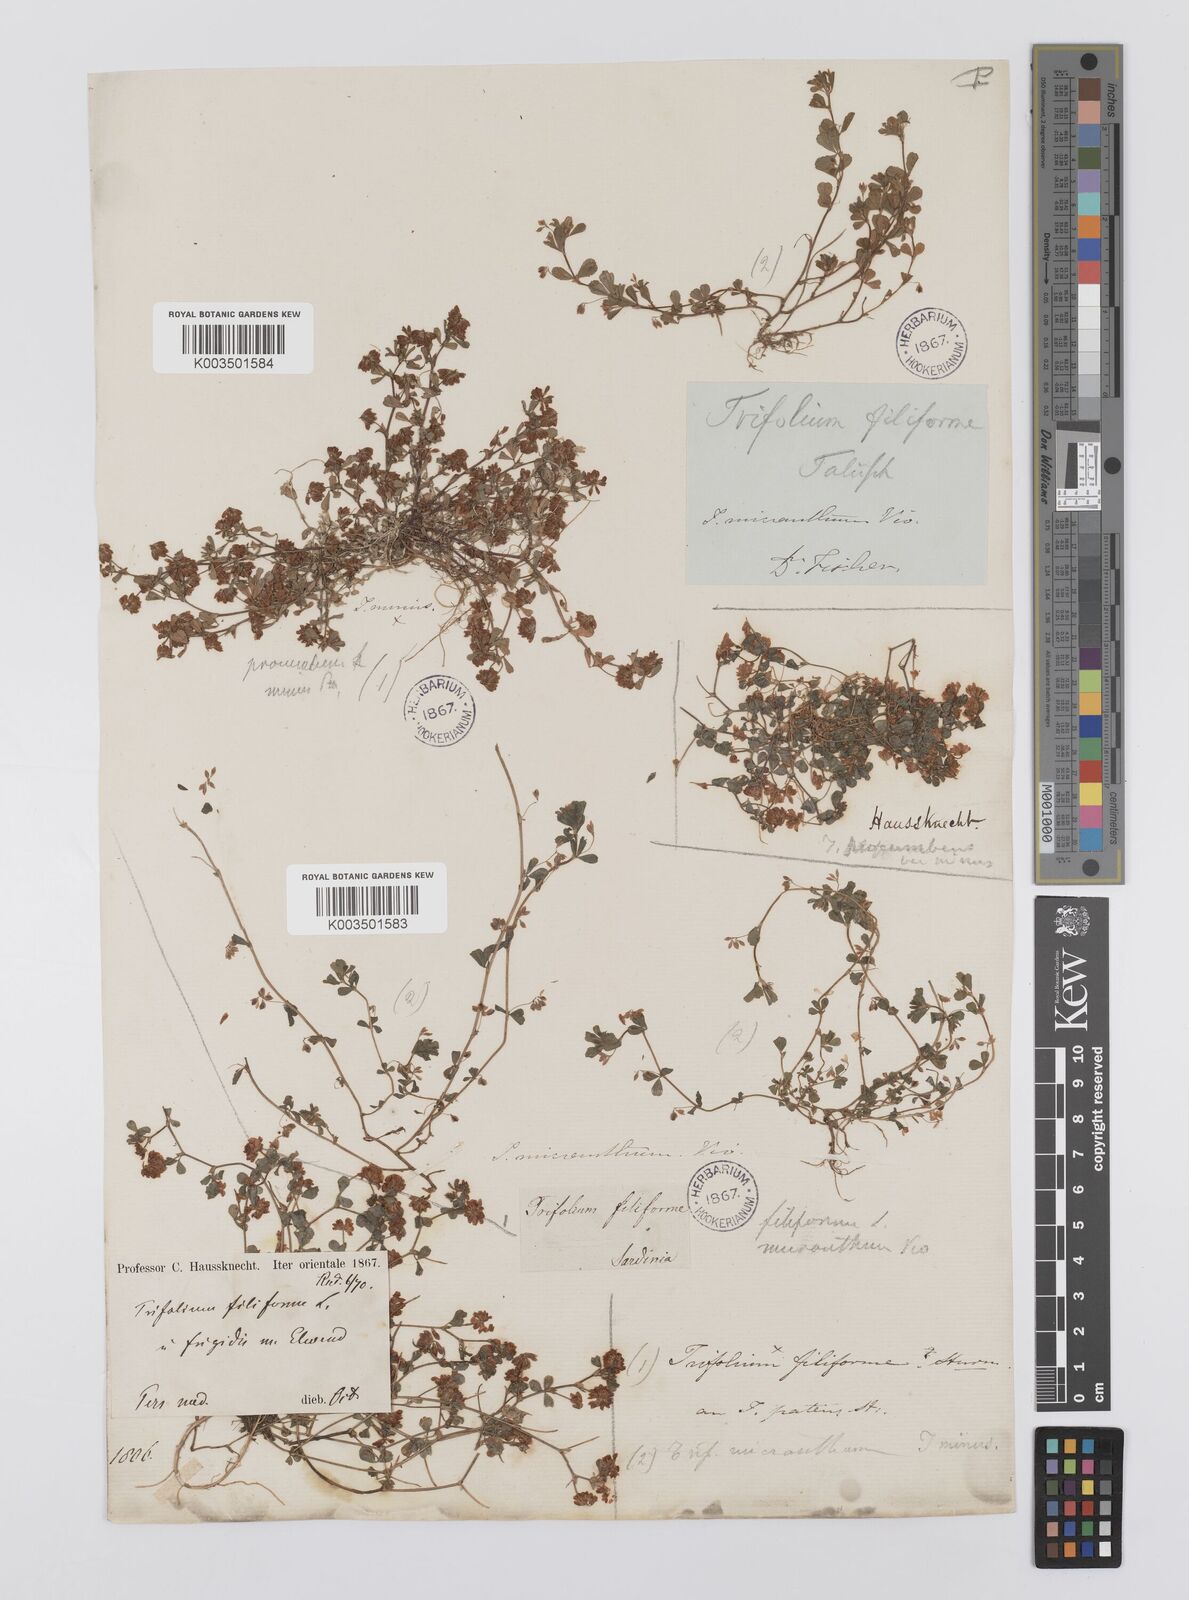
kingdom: Plantae
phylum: Tracheophyta
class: Magnoliopsida
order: Fabales
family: Fabaceae
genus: Trifolium
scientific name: Trifolium micranthum
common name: Slender trefoil
